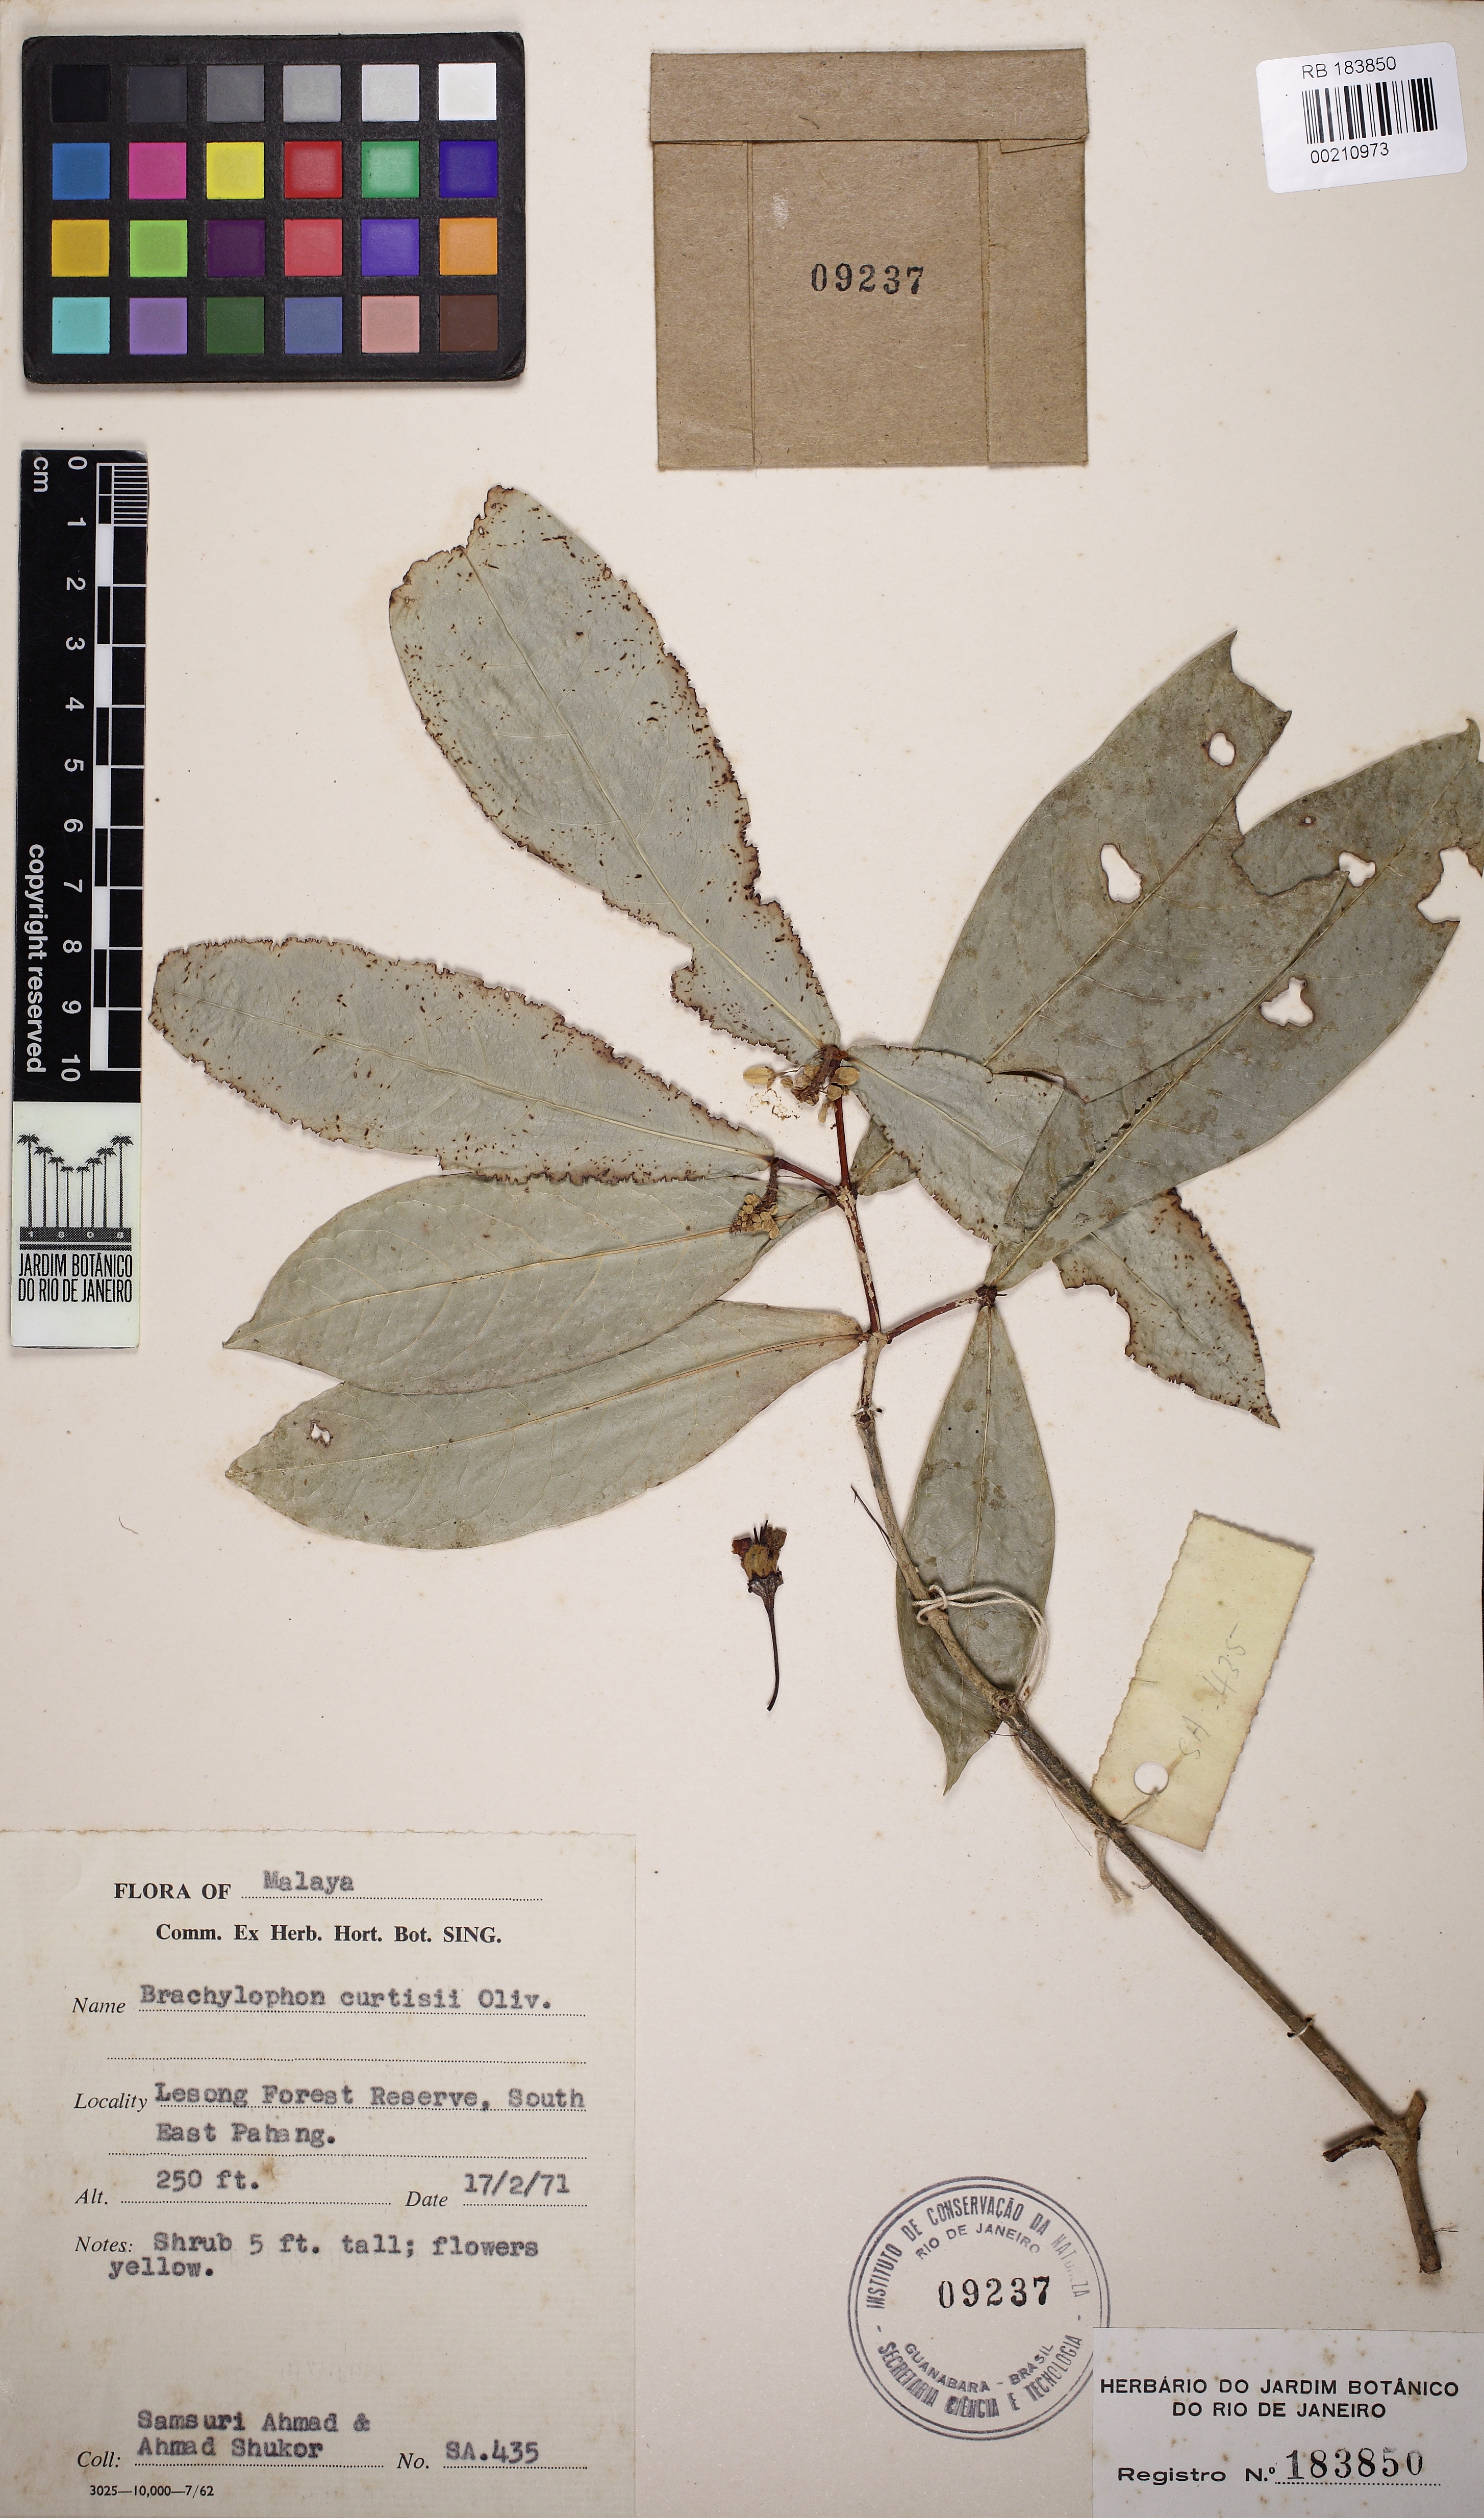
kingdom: Plantae
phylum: Tracheophyta
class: Magnoliopsida
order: Malpighiales
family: Malpighiaceae
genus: Brachylophon
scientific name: Brachylophon curtisii
